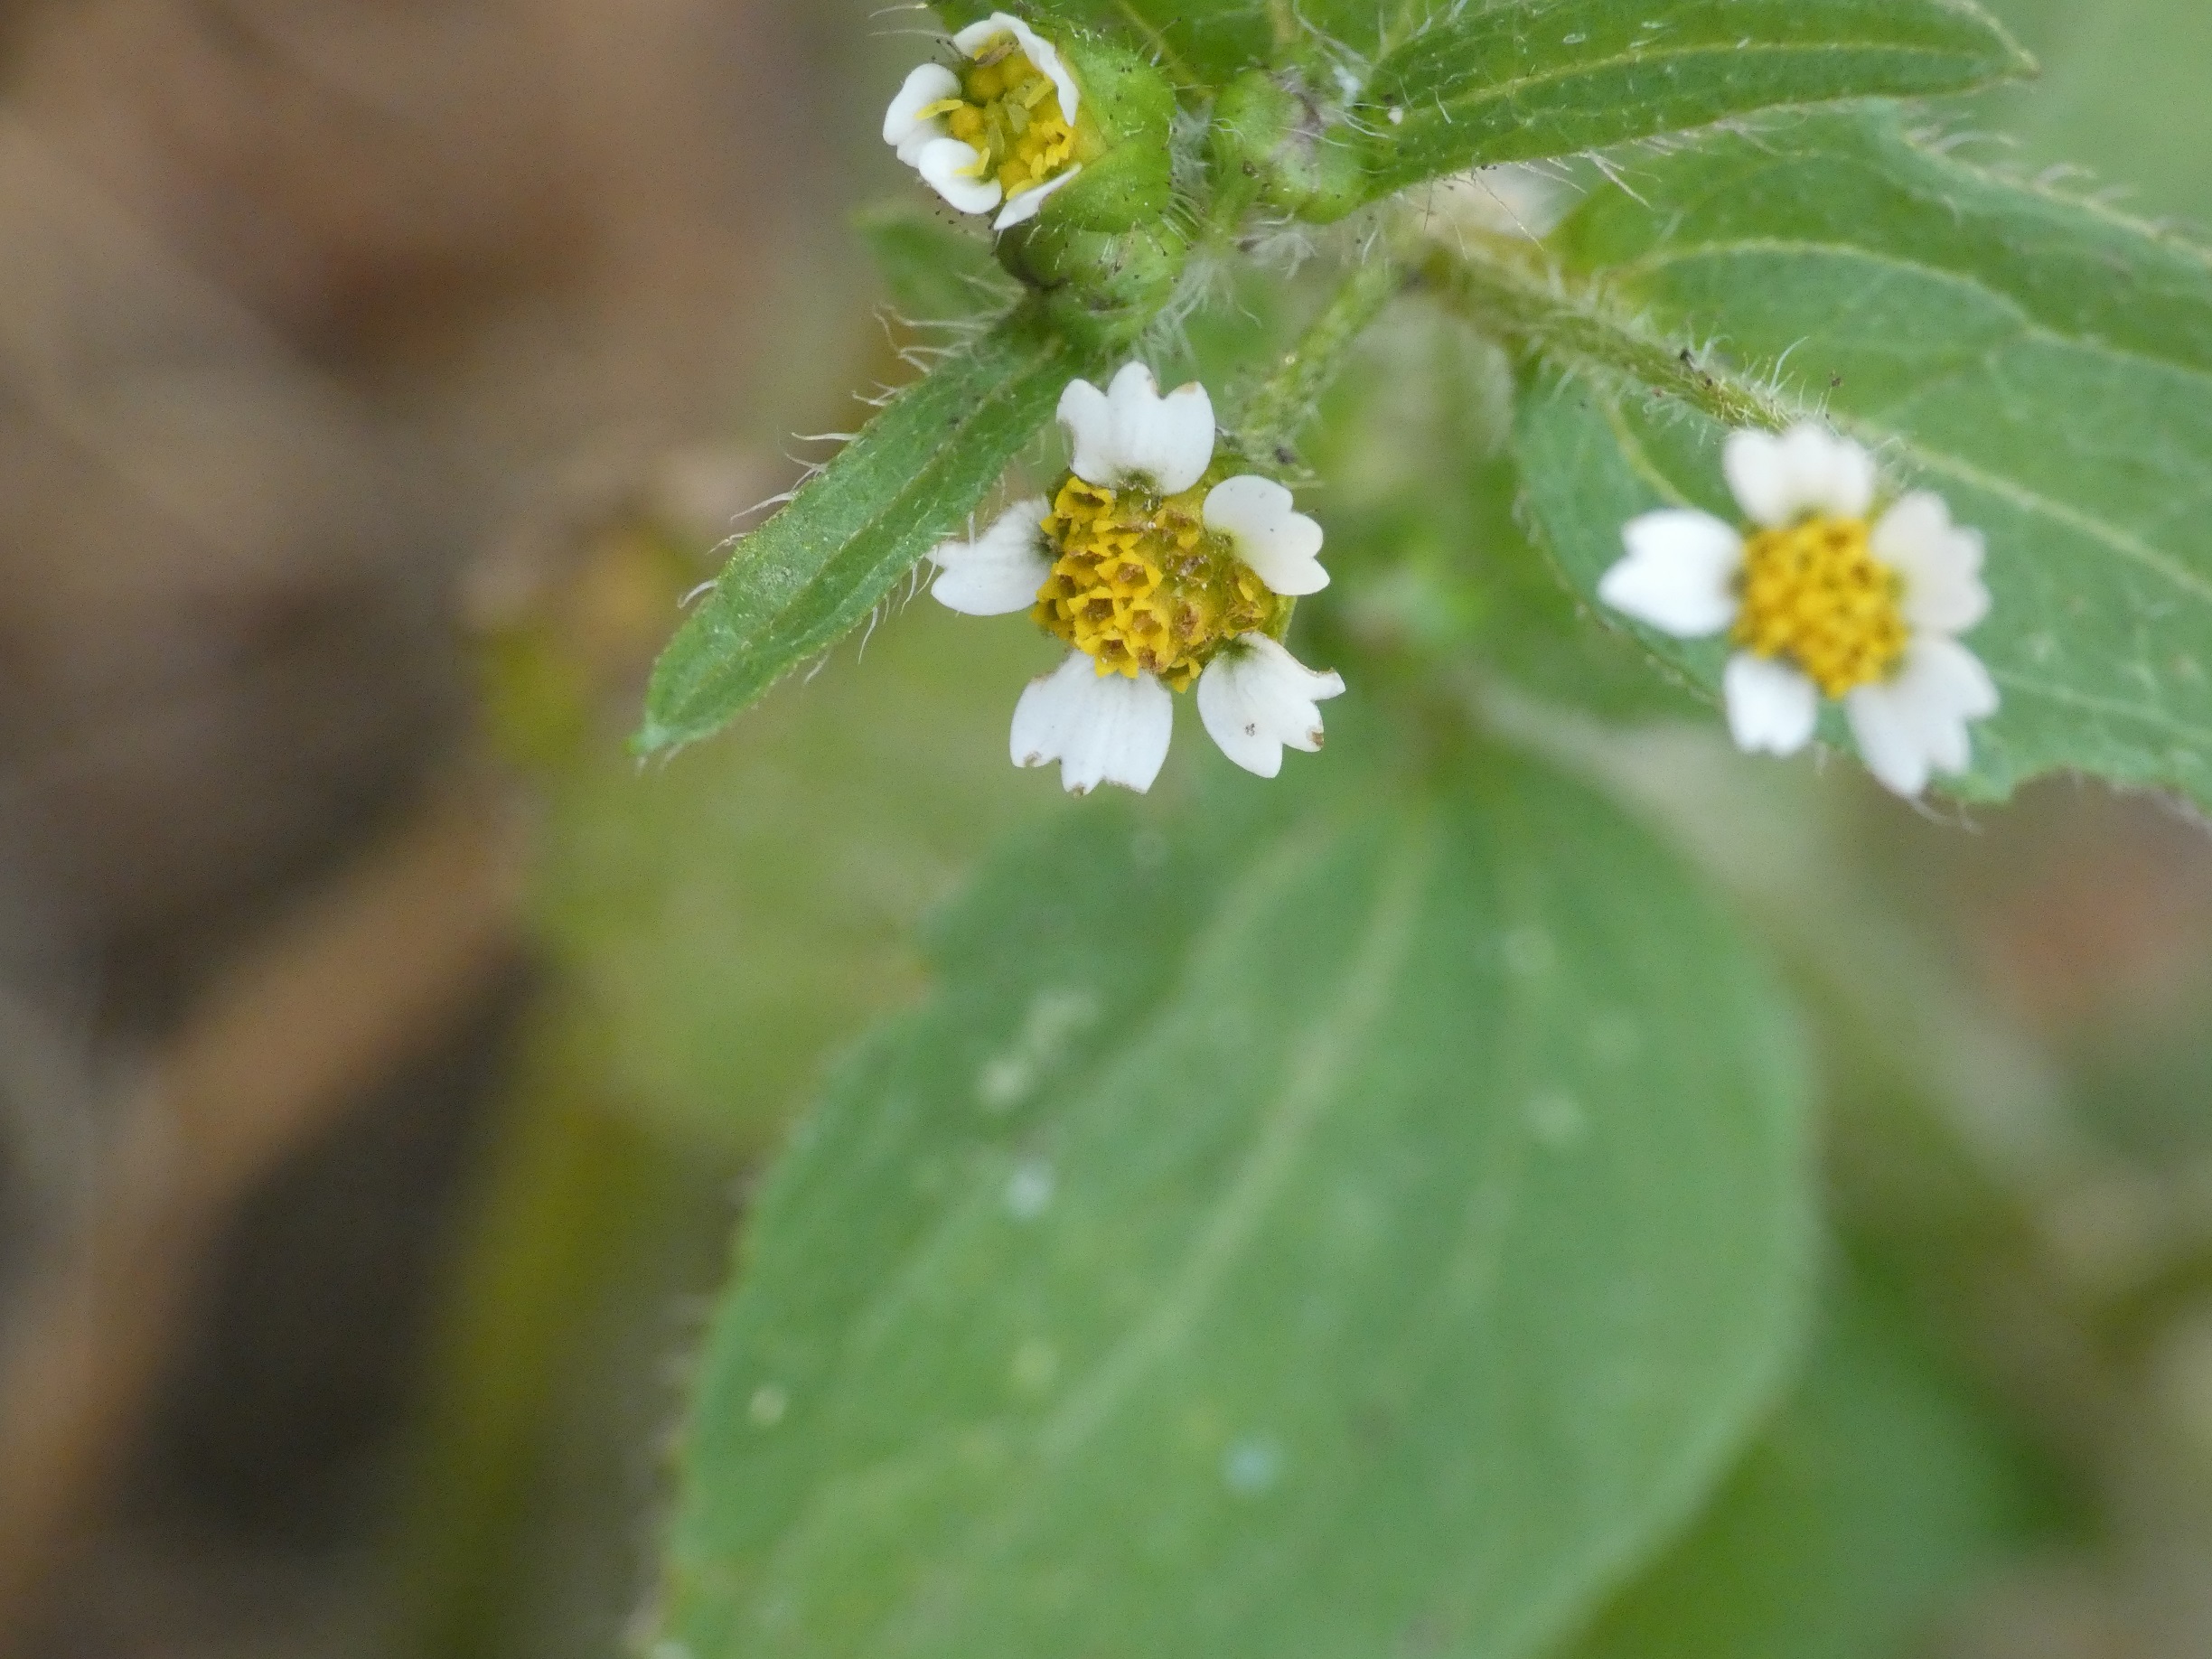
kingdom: Plantae
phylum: Tracheophyta
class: Magnoliopsida
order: Asterales
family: Asteraceae
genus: Galinsoga
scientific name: Galinsoga quadriradiata
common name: Kirtel-kortstråle
